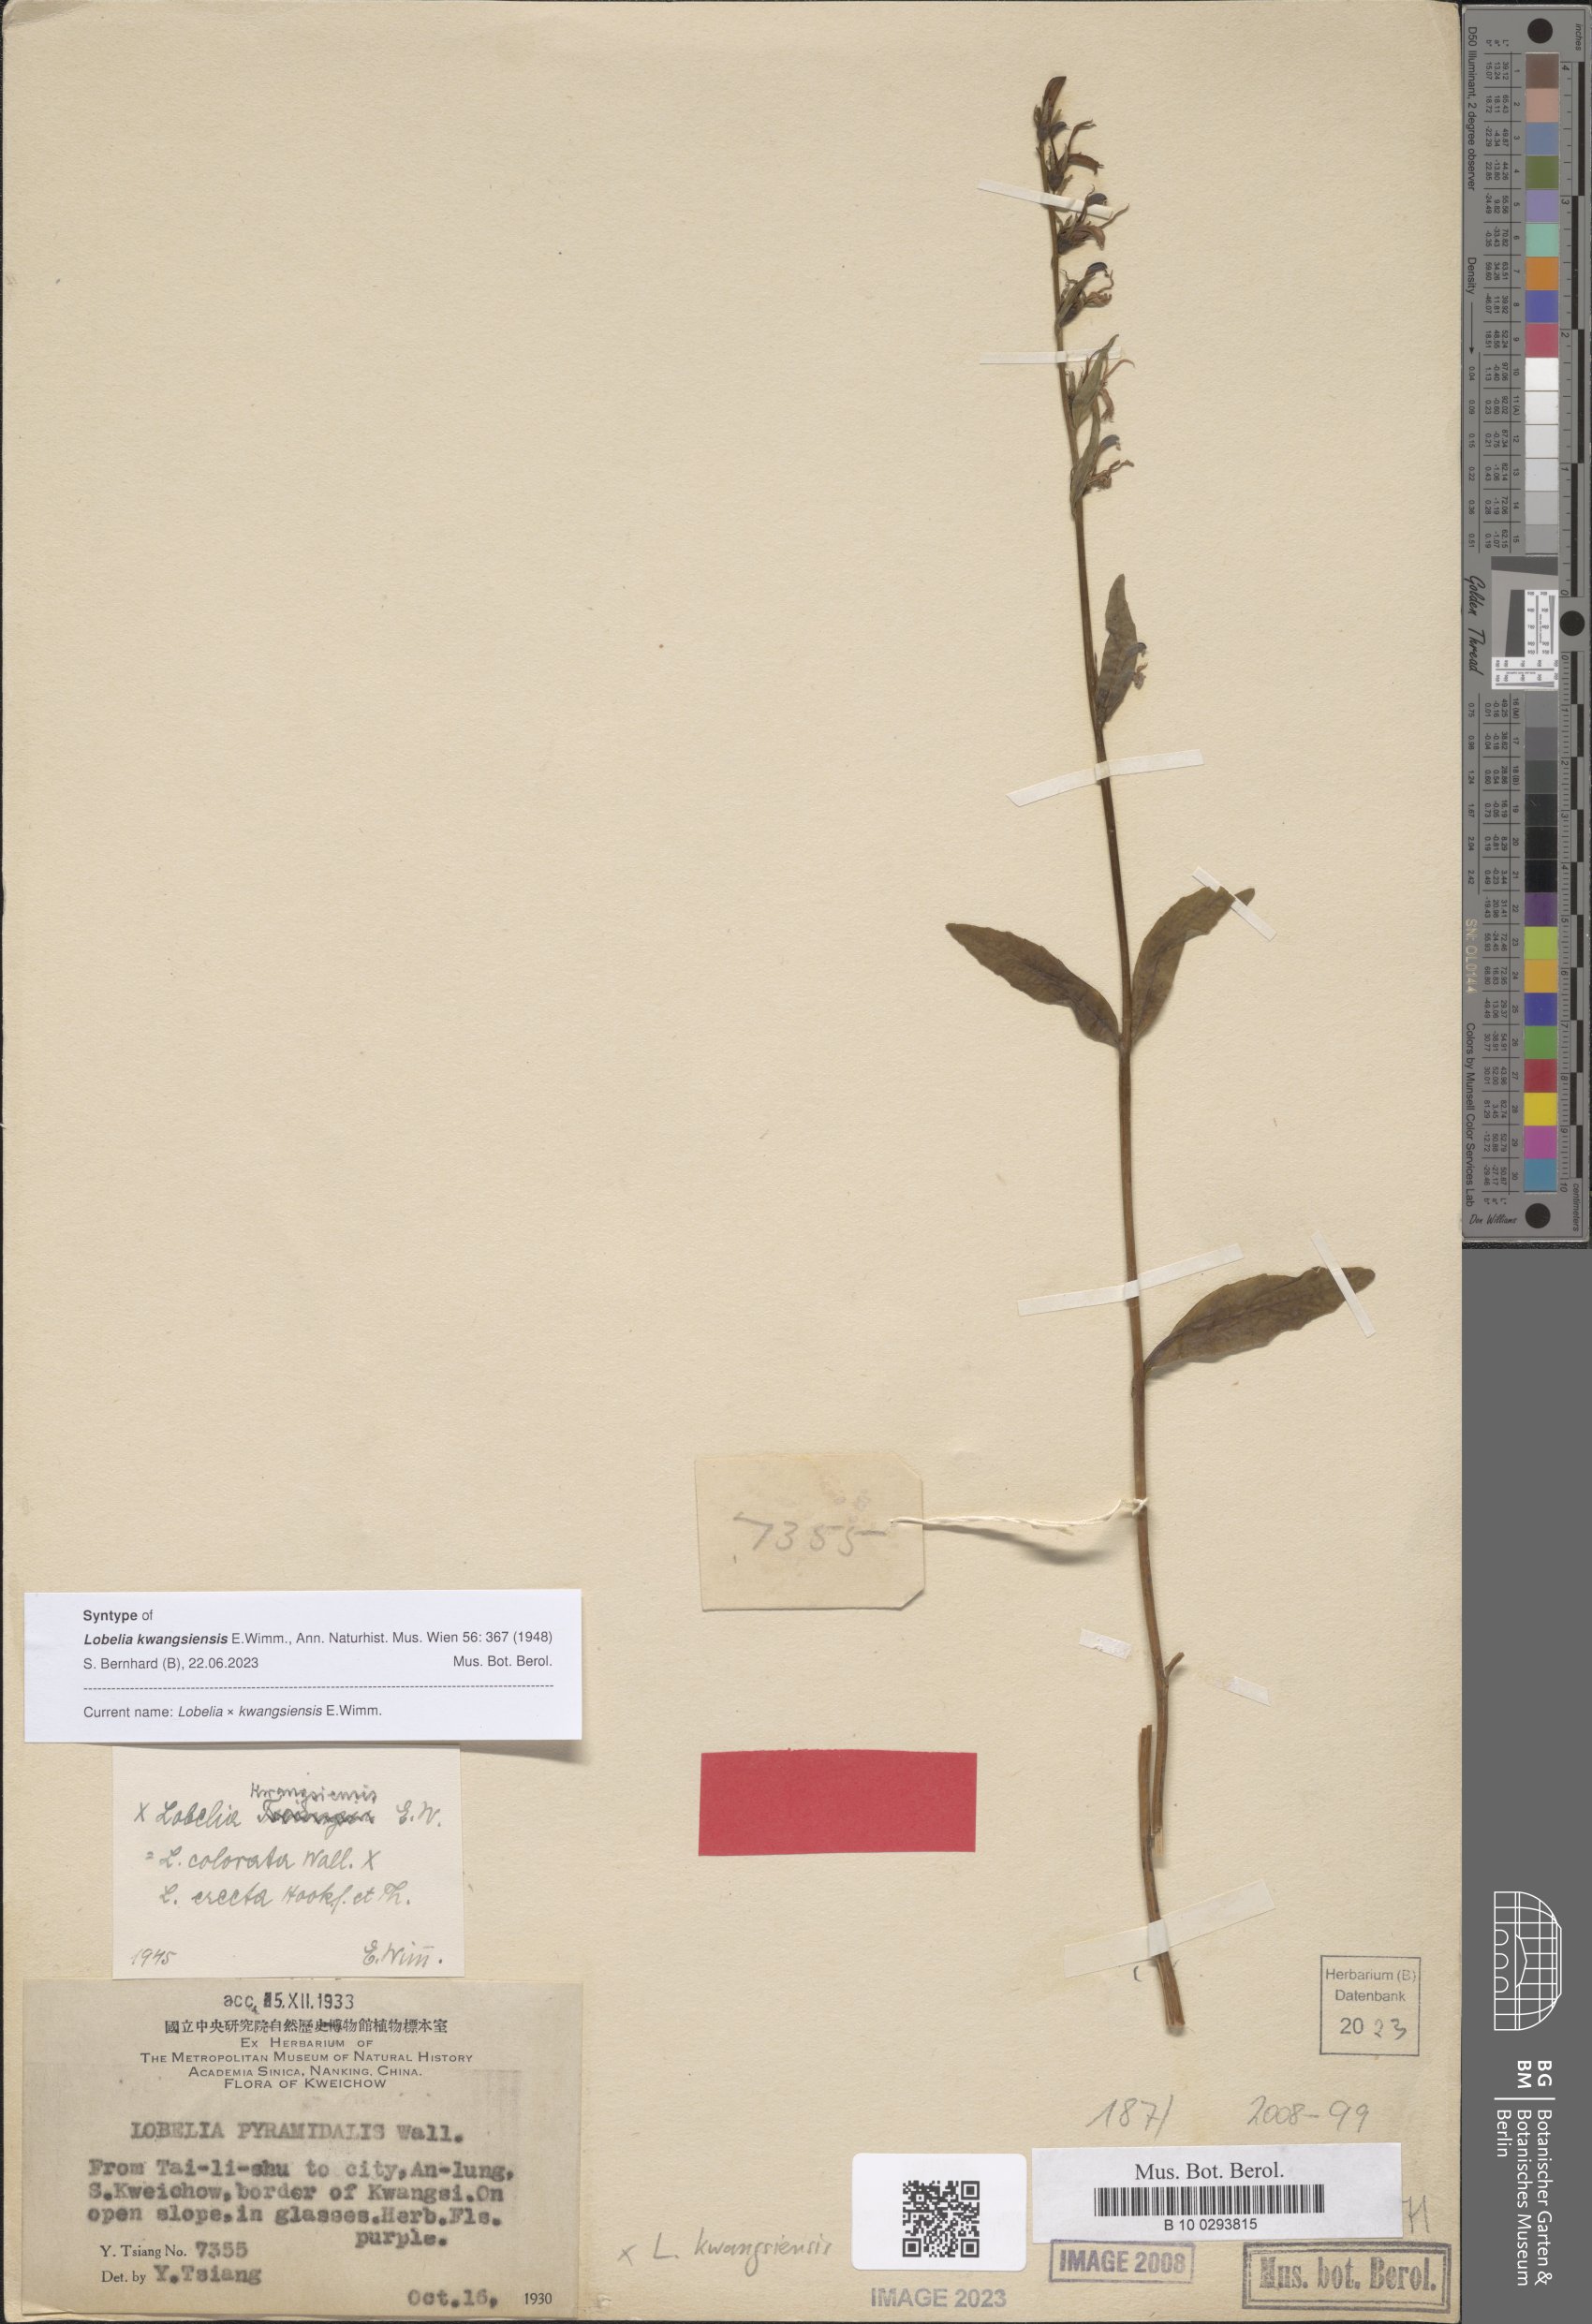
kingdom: Plantae
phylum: Tracheophyta
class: Magnoliopsida
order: Asterales
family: Campanulaceae
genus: Lobelia
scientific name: Lobelia davidii
